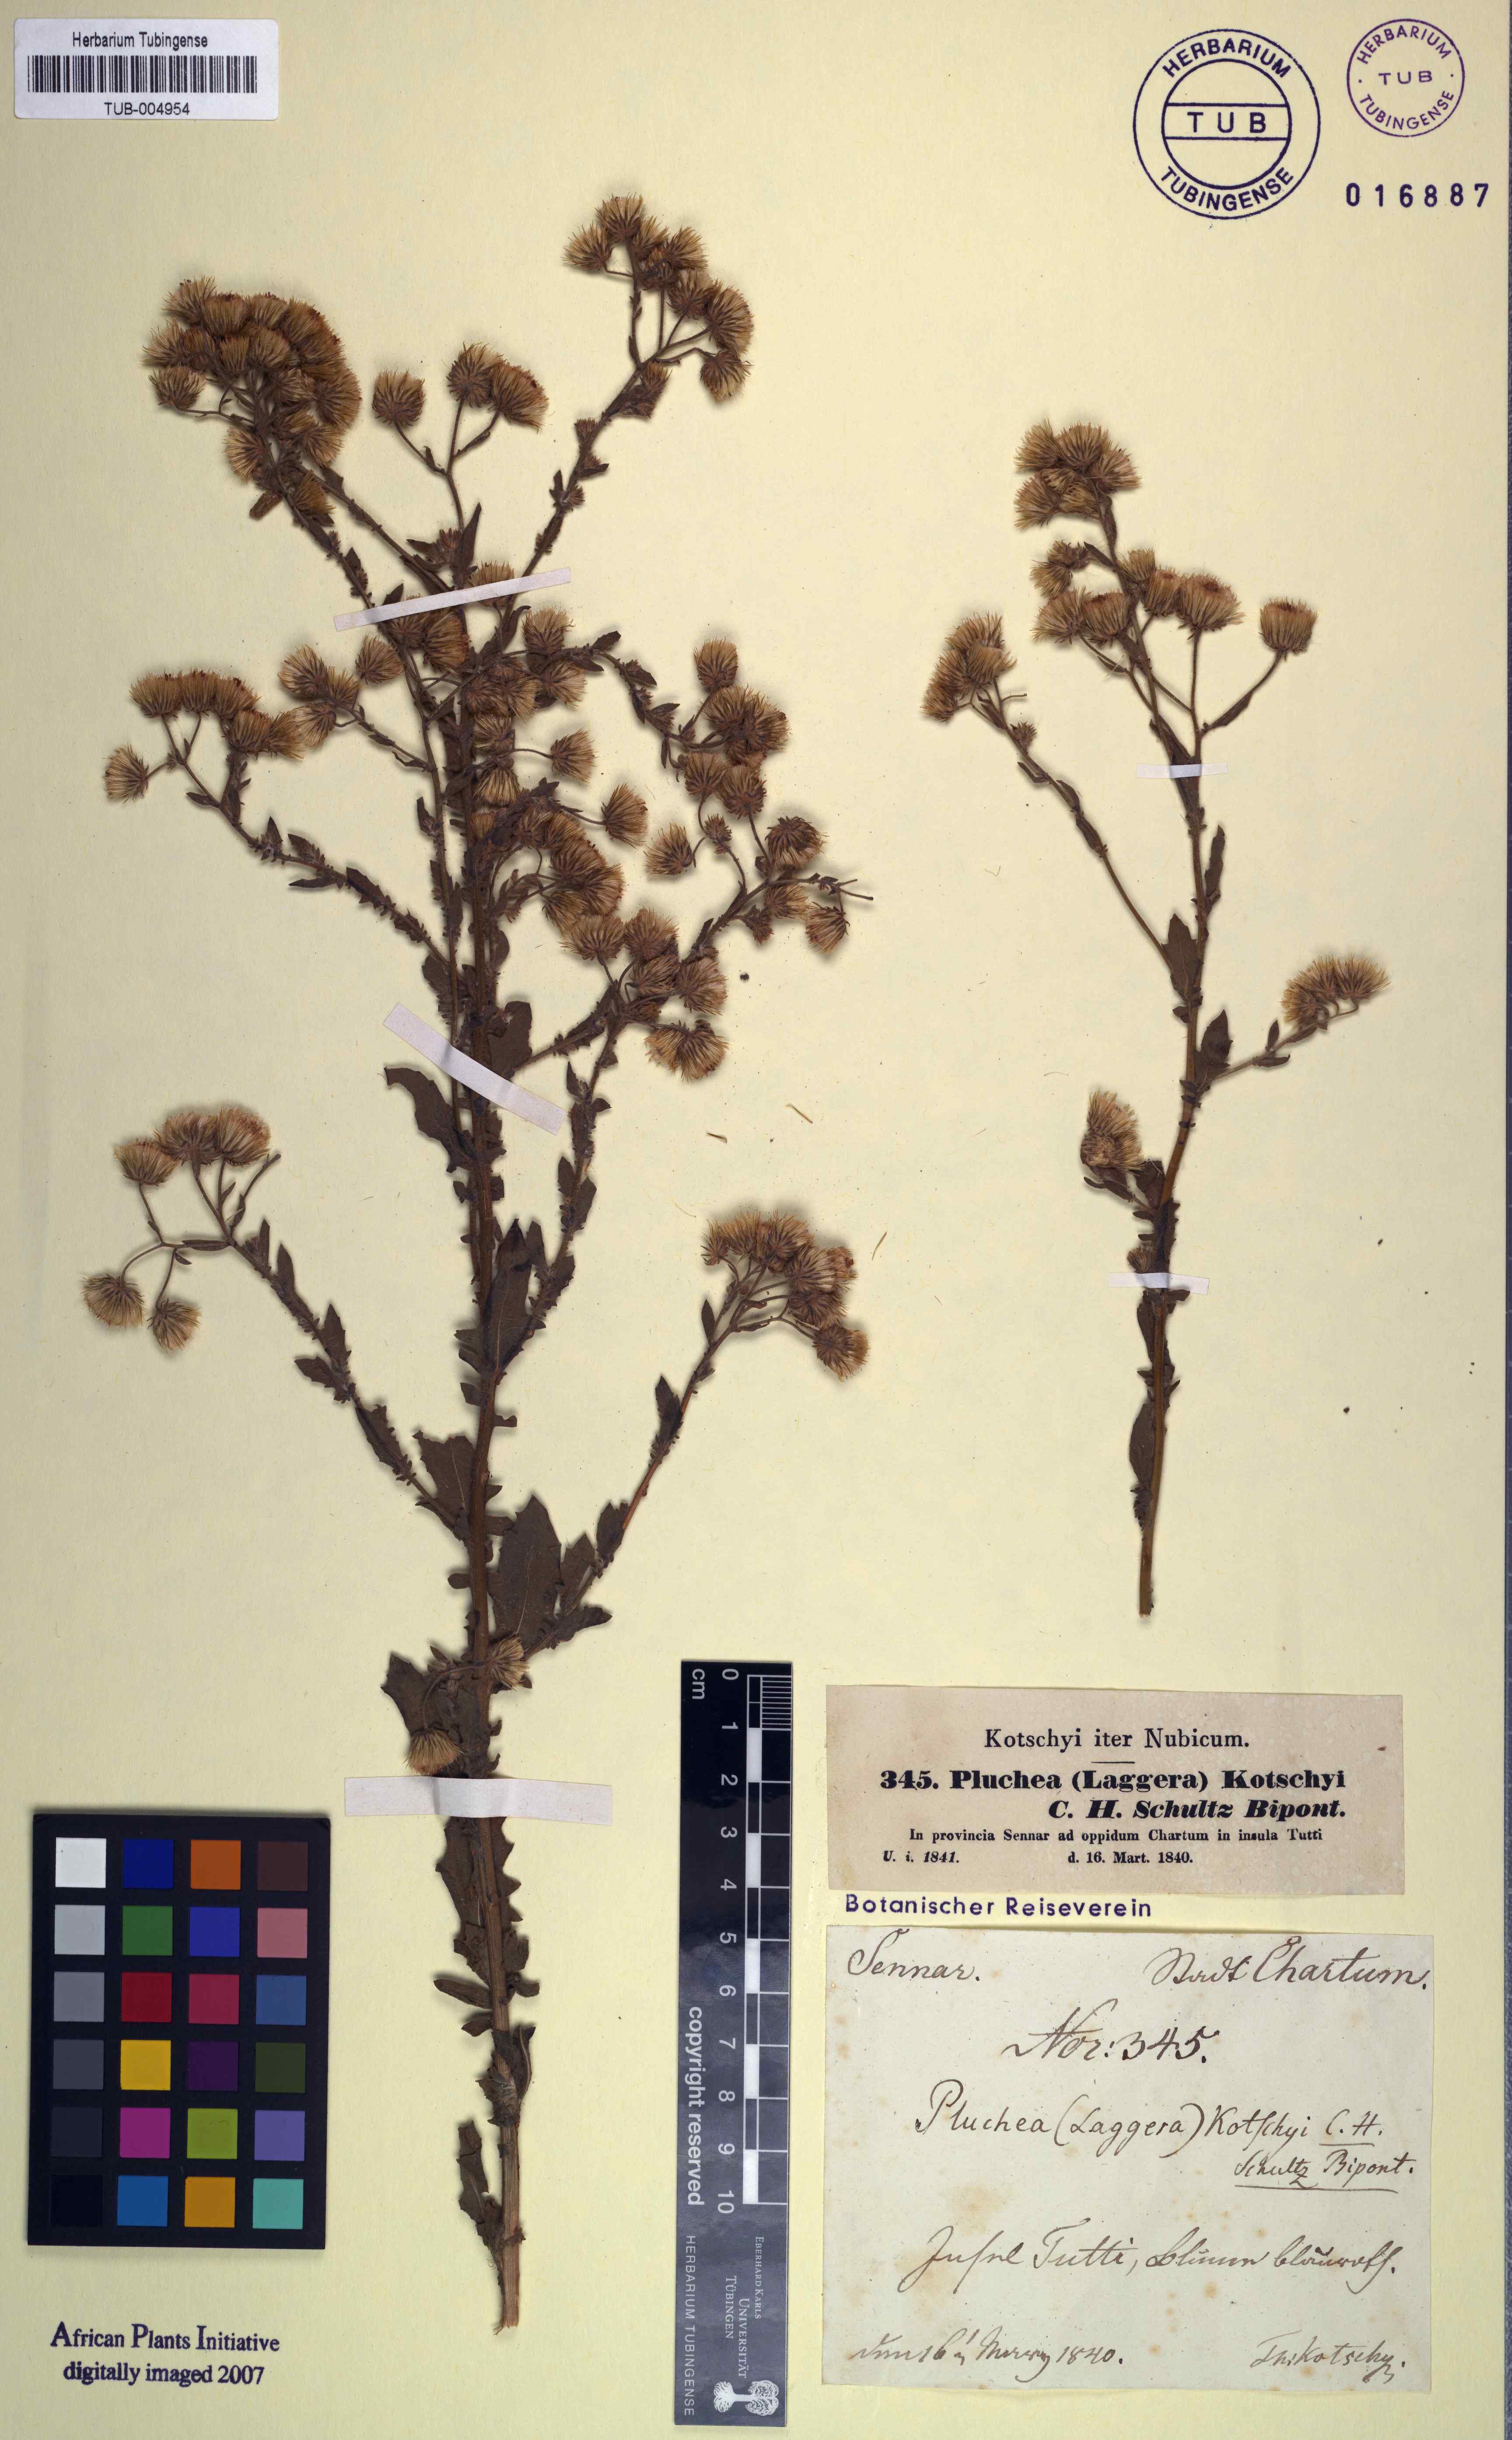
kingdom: Plantae
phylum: Tracheophyta
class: Magnoliopsida
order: Asterales
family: Asteraceae
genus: Pseudoconyza
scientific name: Pseudoconyza viscosa
